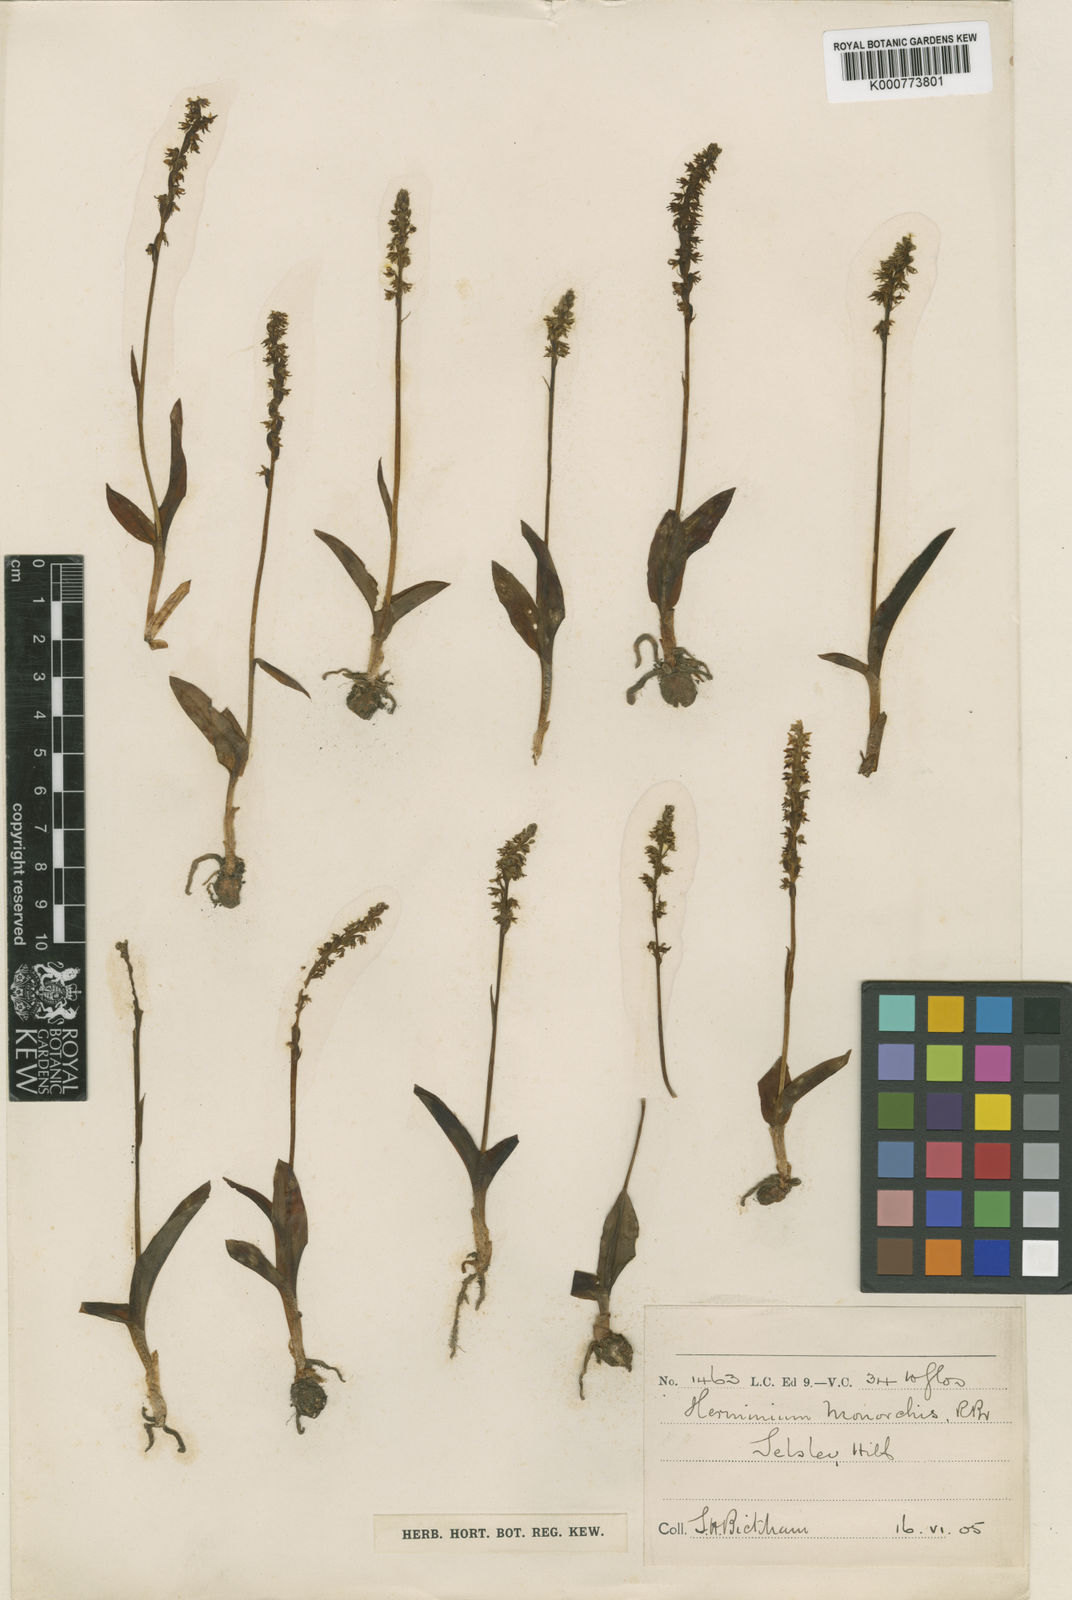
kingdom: Plantae
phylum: Tracheophyta
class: Liliopsida
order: Asparagales
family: Orchidaceae
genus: Herminium
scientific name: Herminium monorchis
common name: Musk orchid
